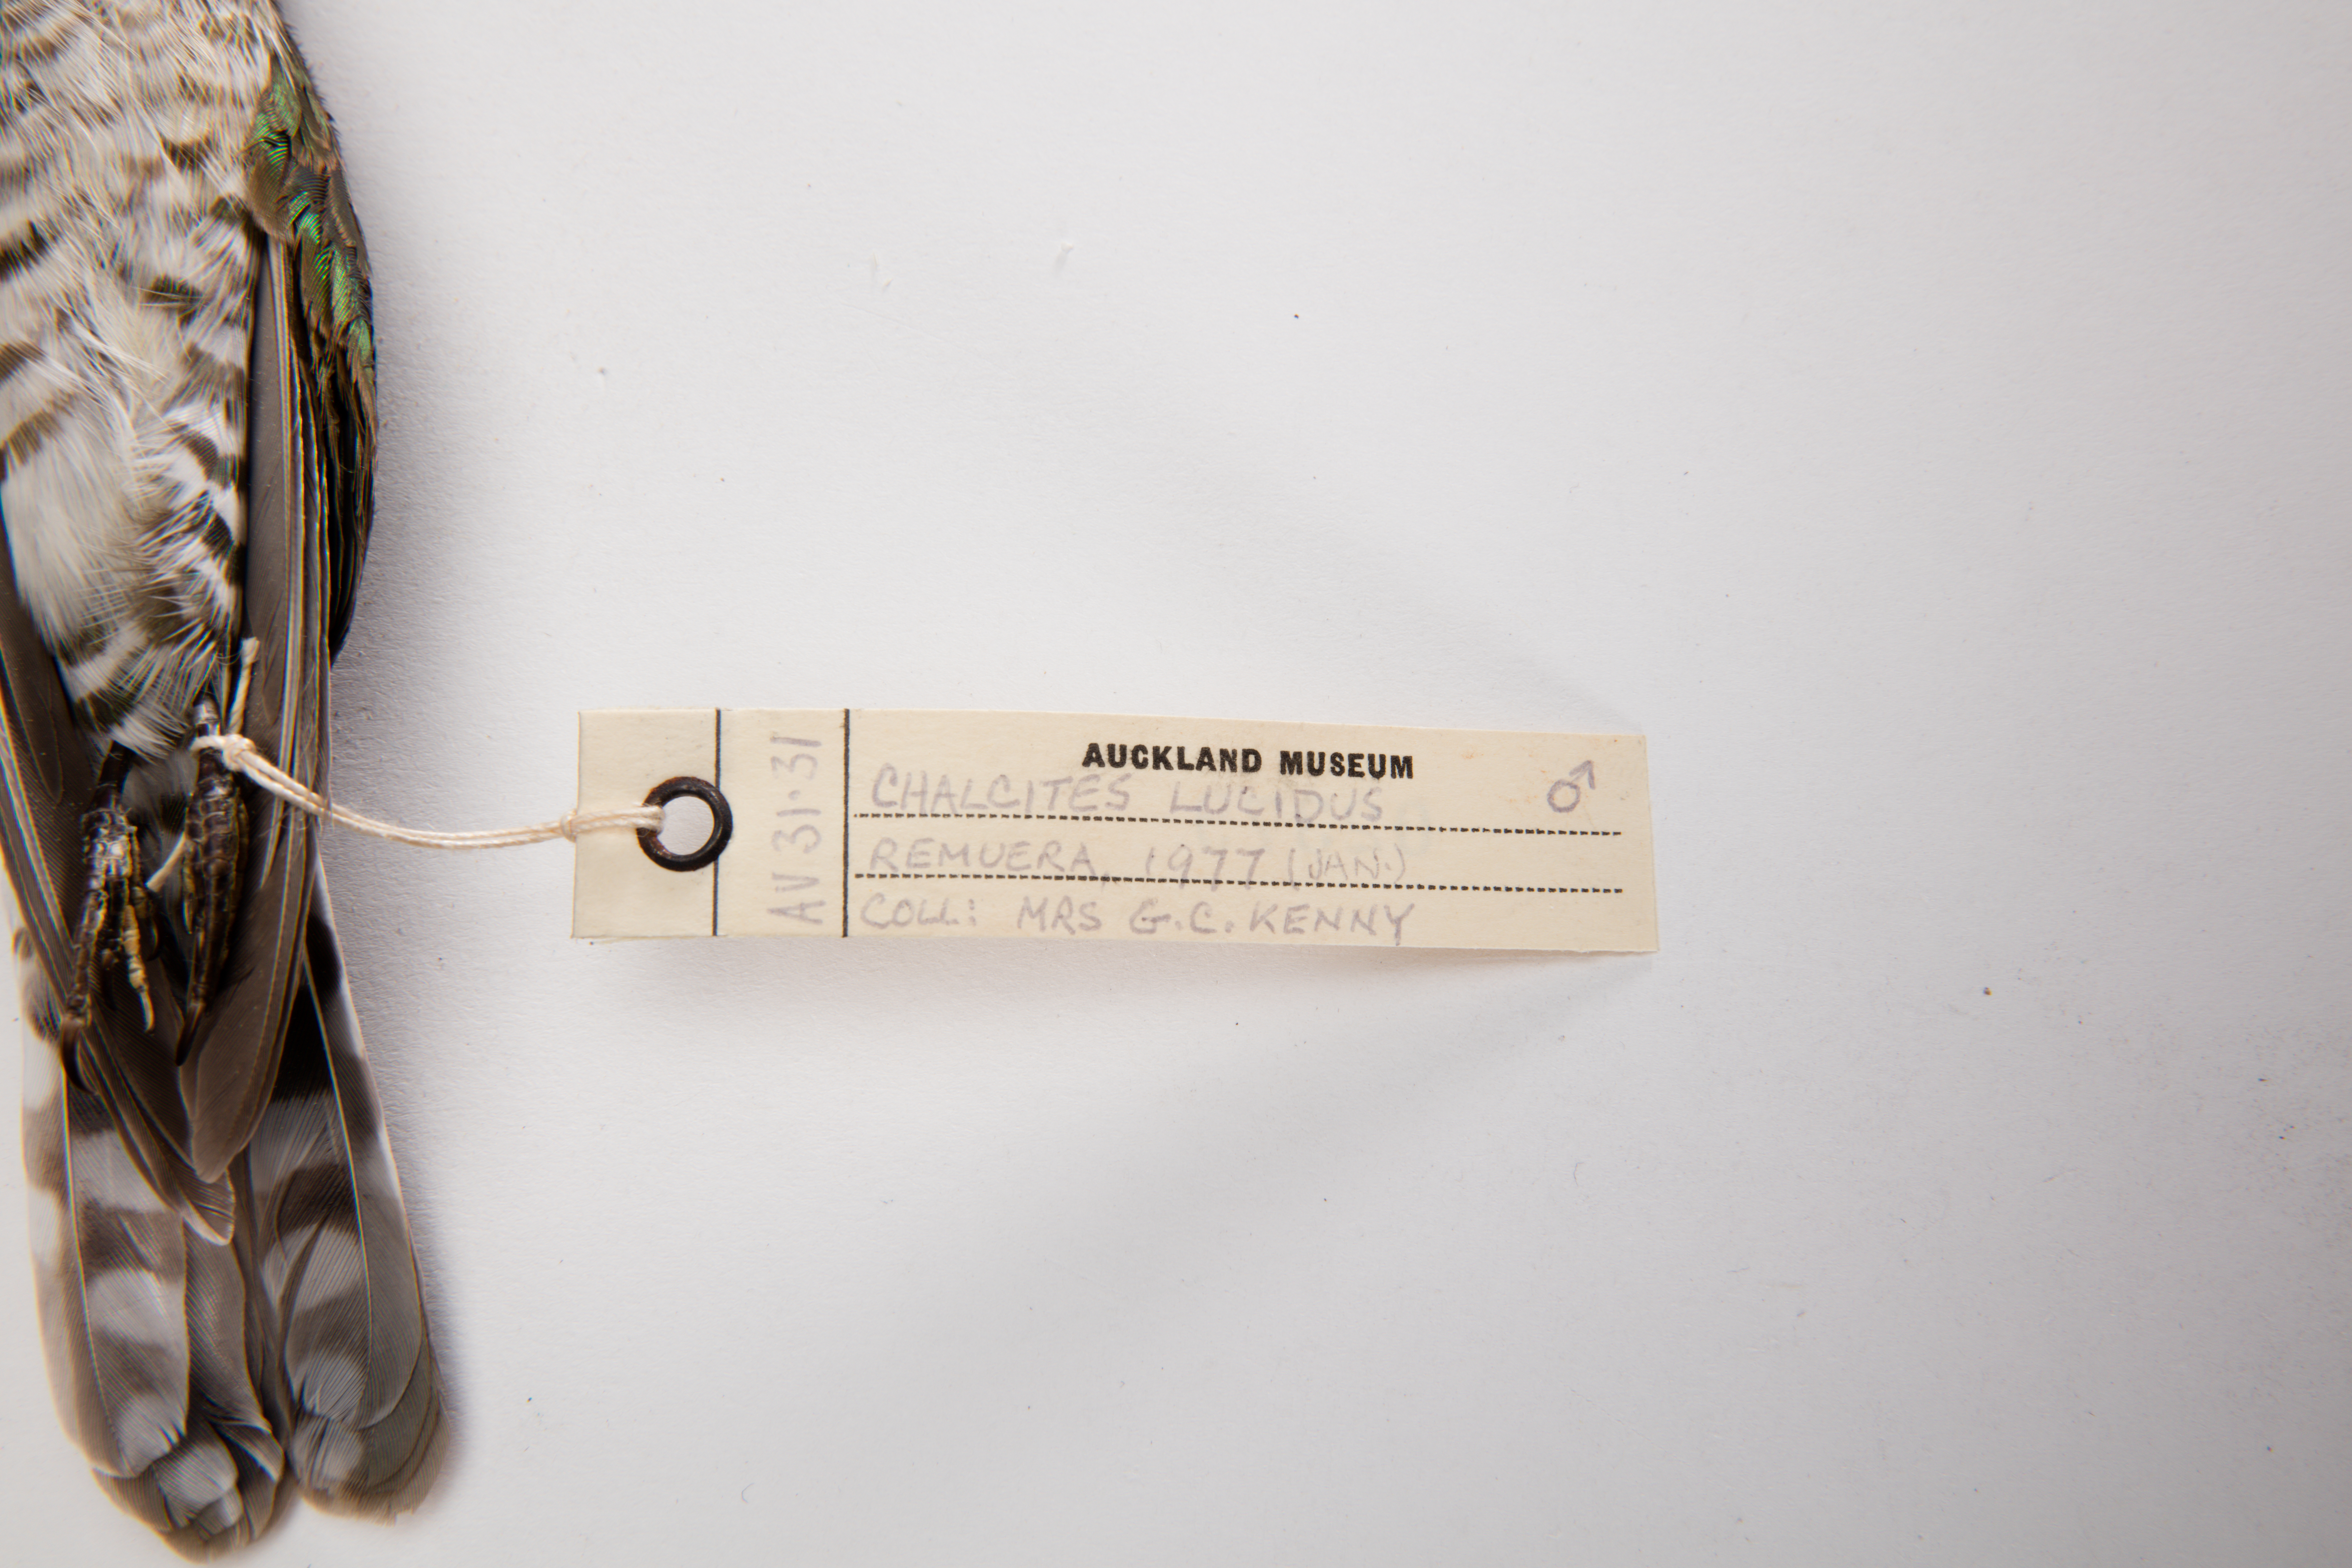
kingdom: Animalia
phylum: Chordata
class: Aves
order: Cuculiformes
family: Cuculidae
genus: Chrysococcyx
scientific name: Chrysococcyx lucidus
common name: Shining bronze cuckoo
